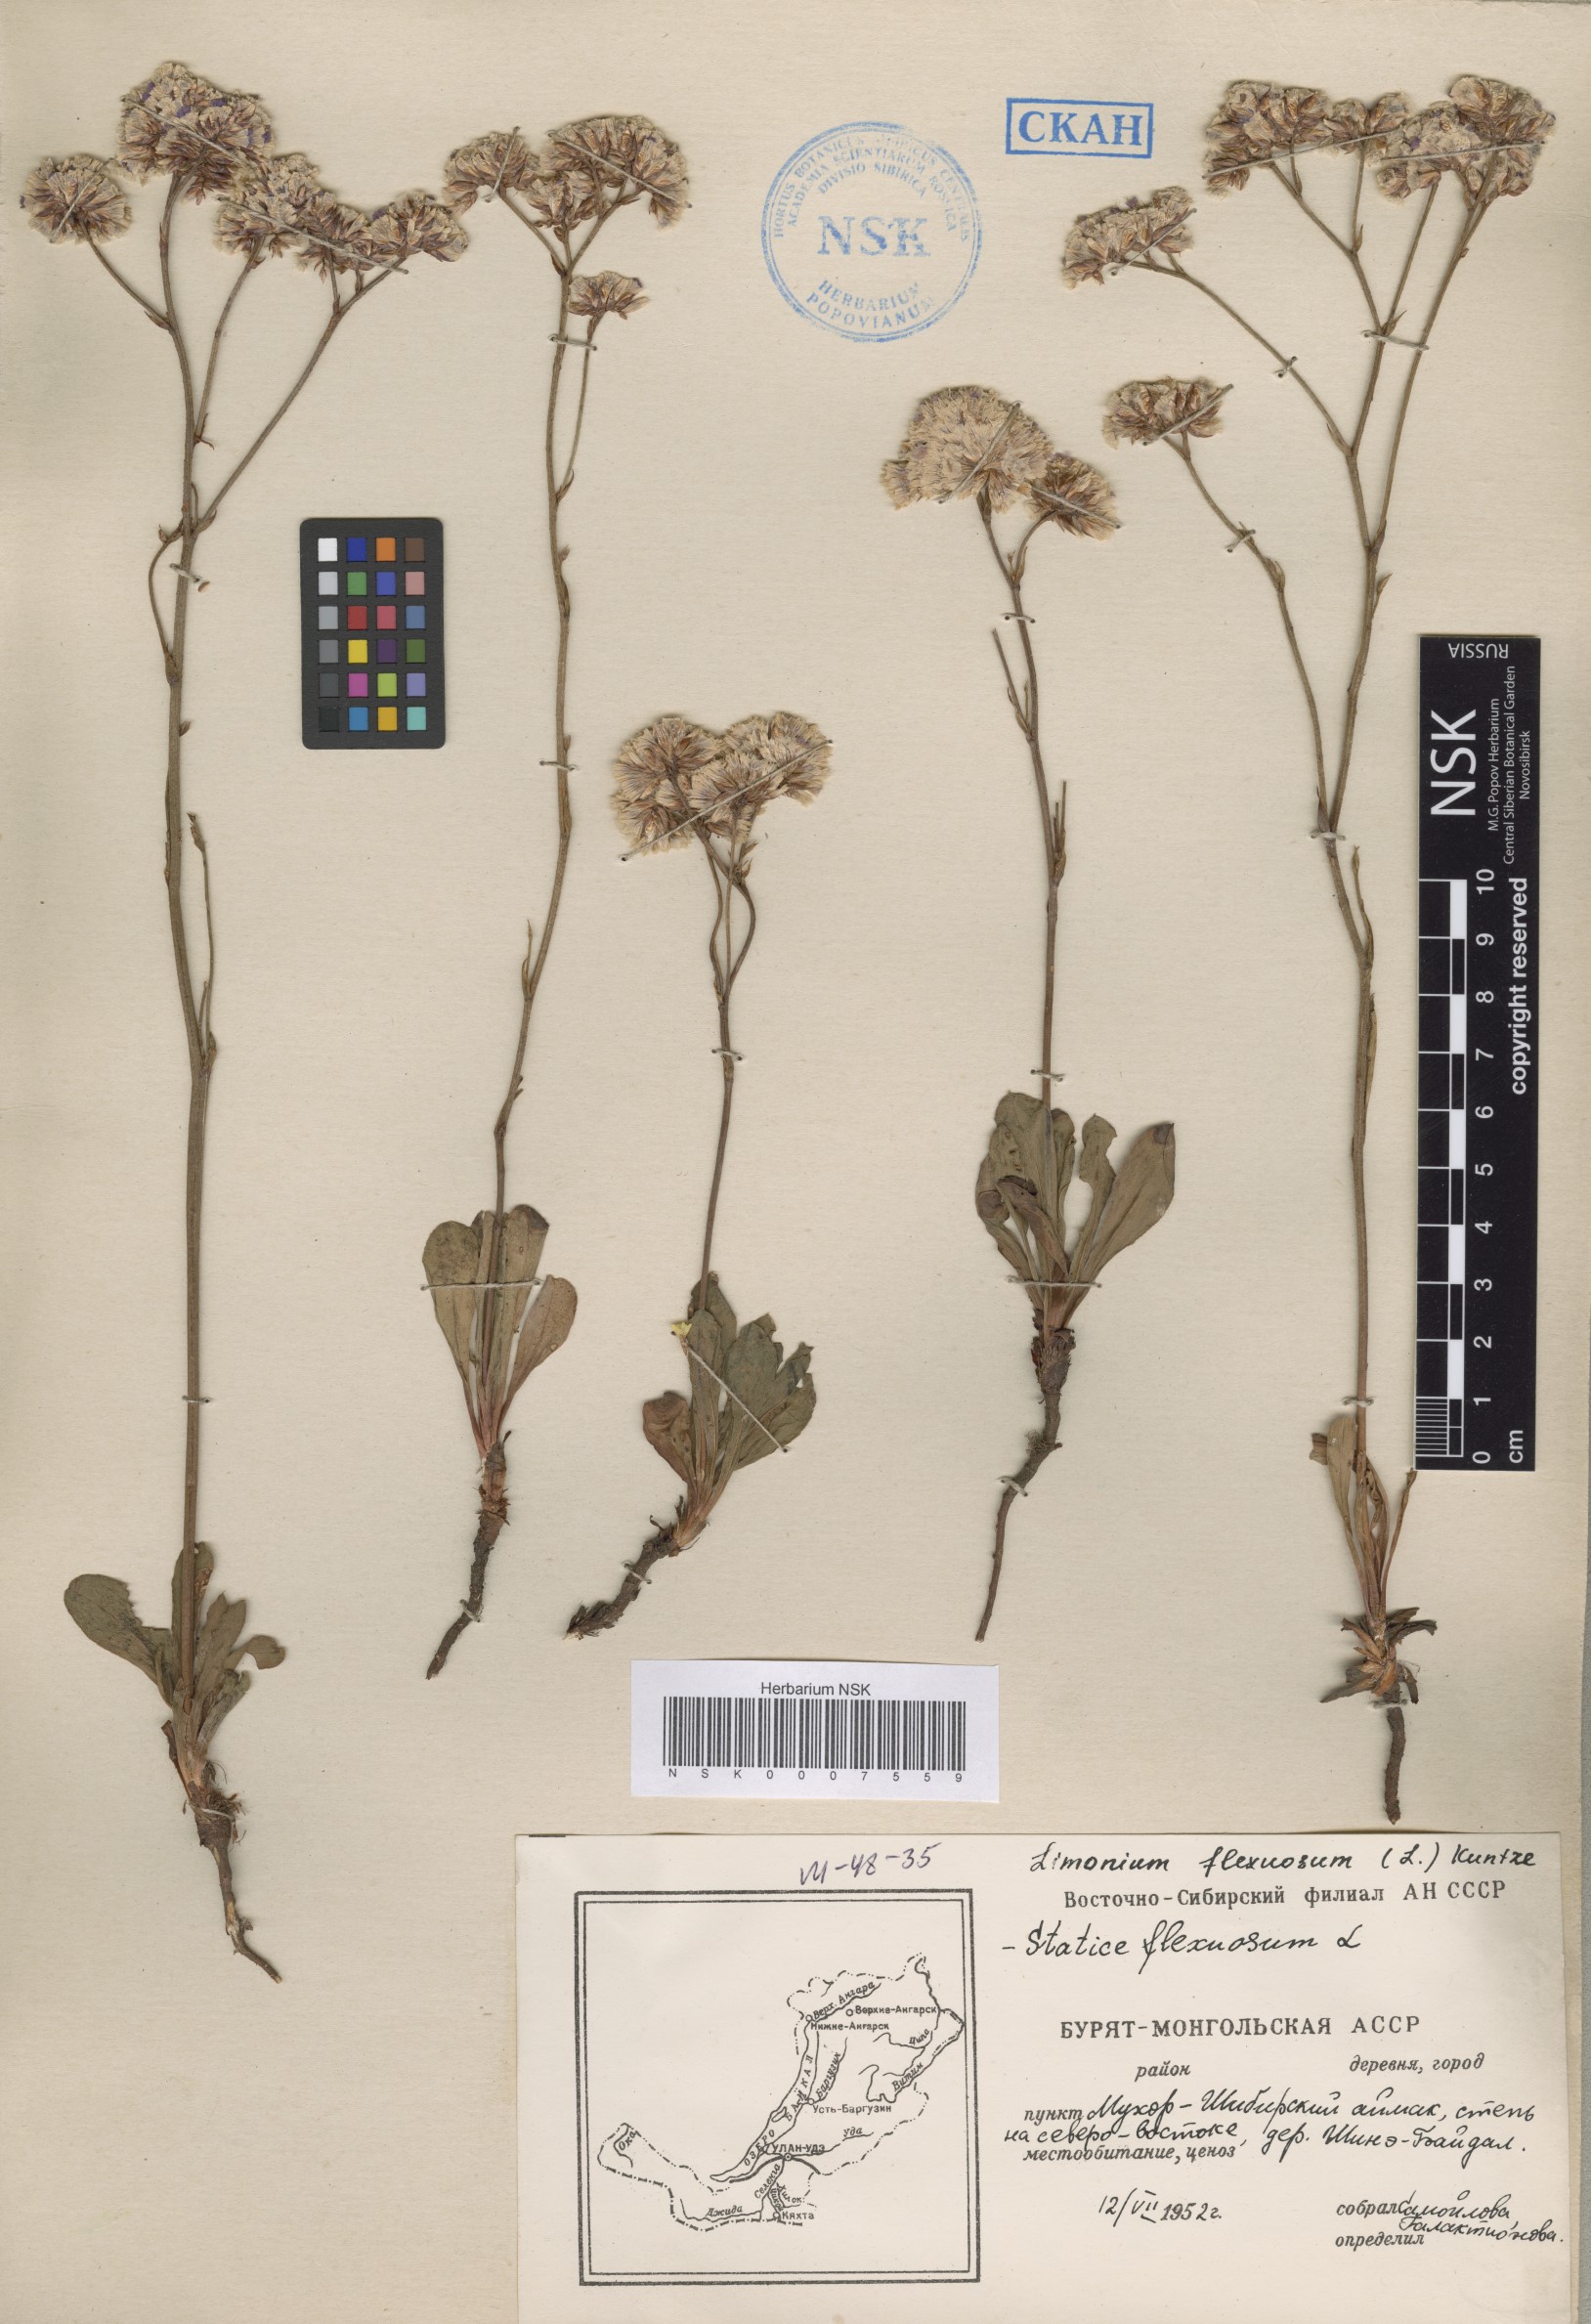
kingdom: Plantae
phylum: Tracheophyta
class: Magnoliopsida
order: Caryophyllales
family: Plumbaginaceae
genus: Limonium
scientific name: Limonium flexuosum
